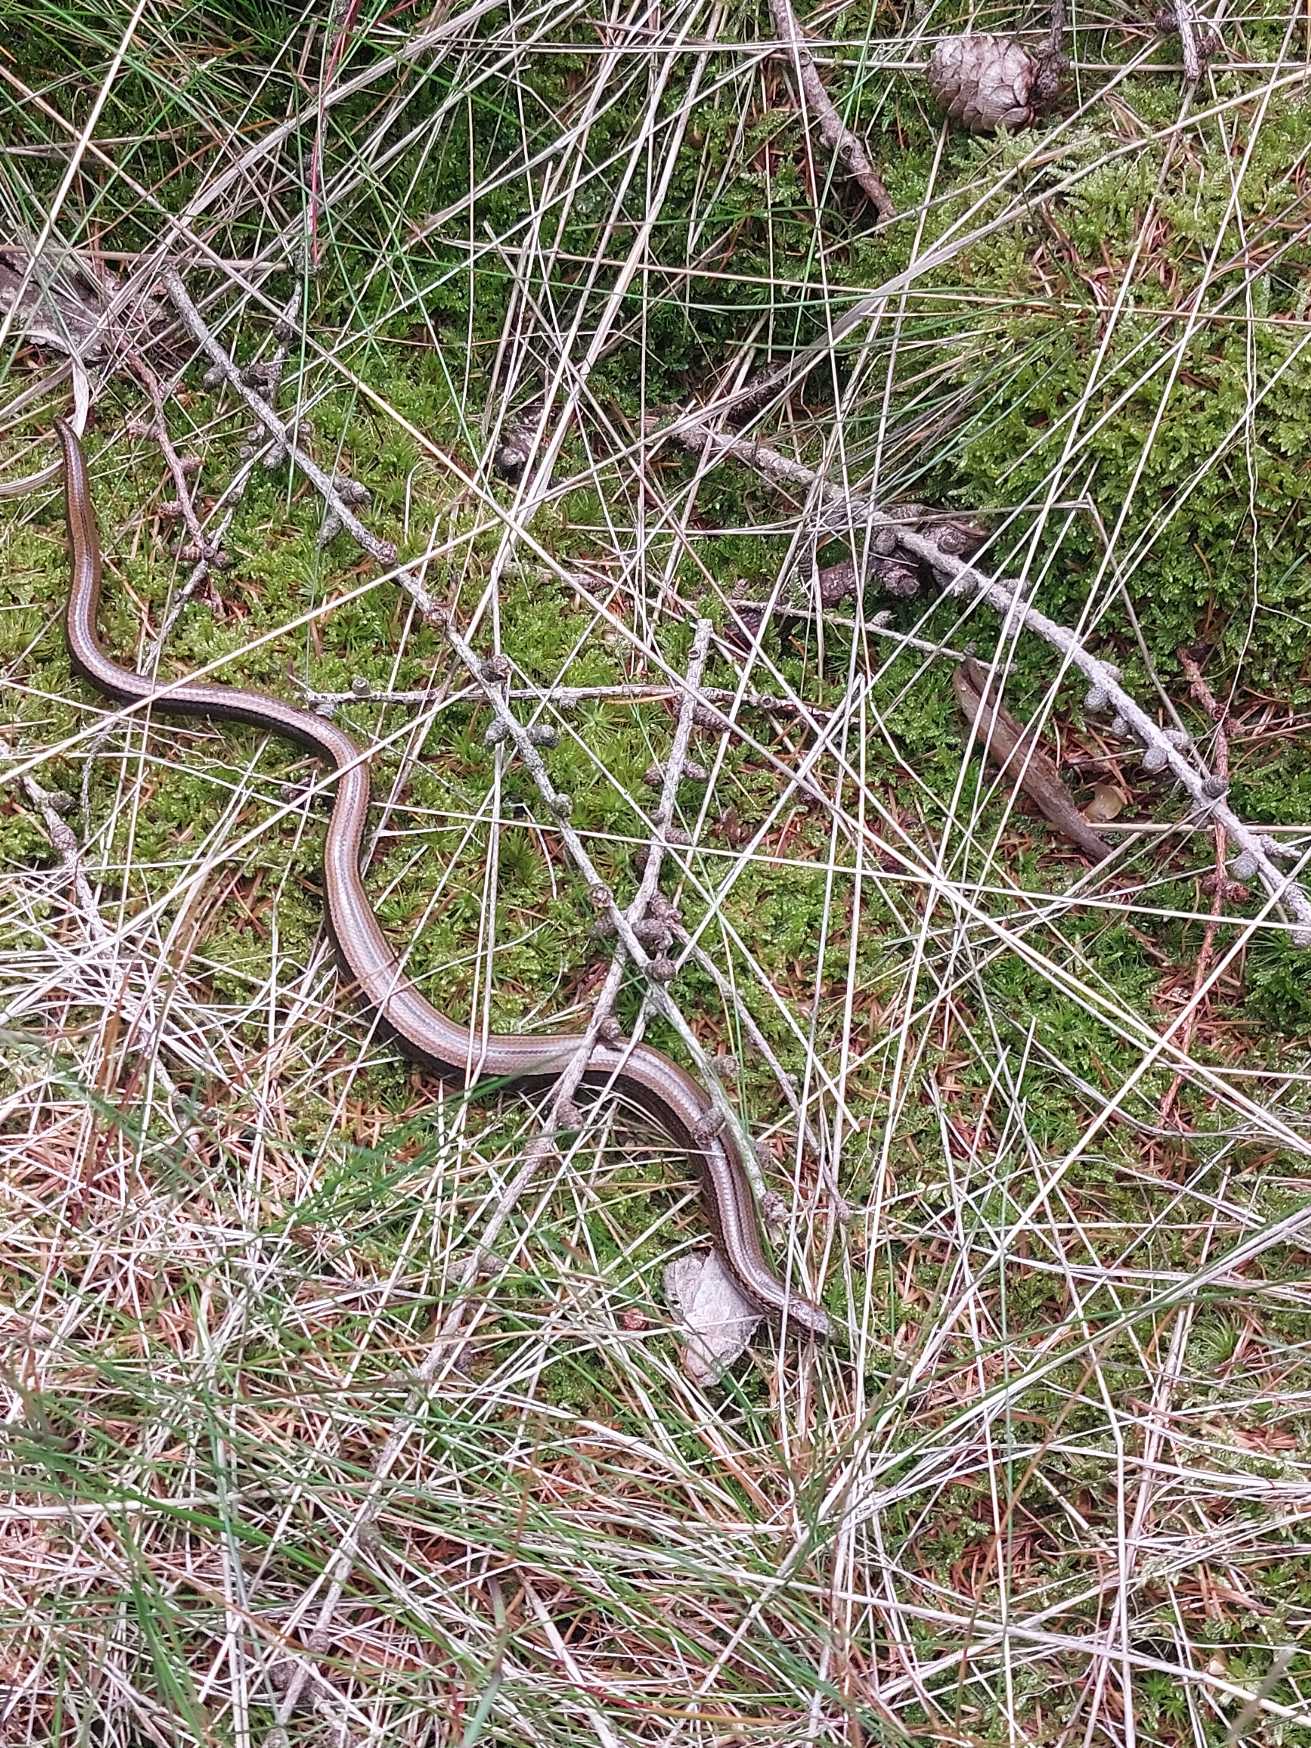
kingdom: Animalia
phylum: Chordata
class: Squamata
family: Anguidae
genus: Anguis
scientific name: Anguis fragilis
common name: Stålorm
